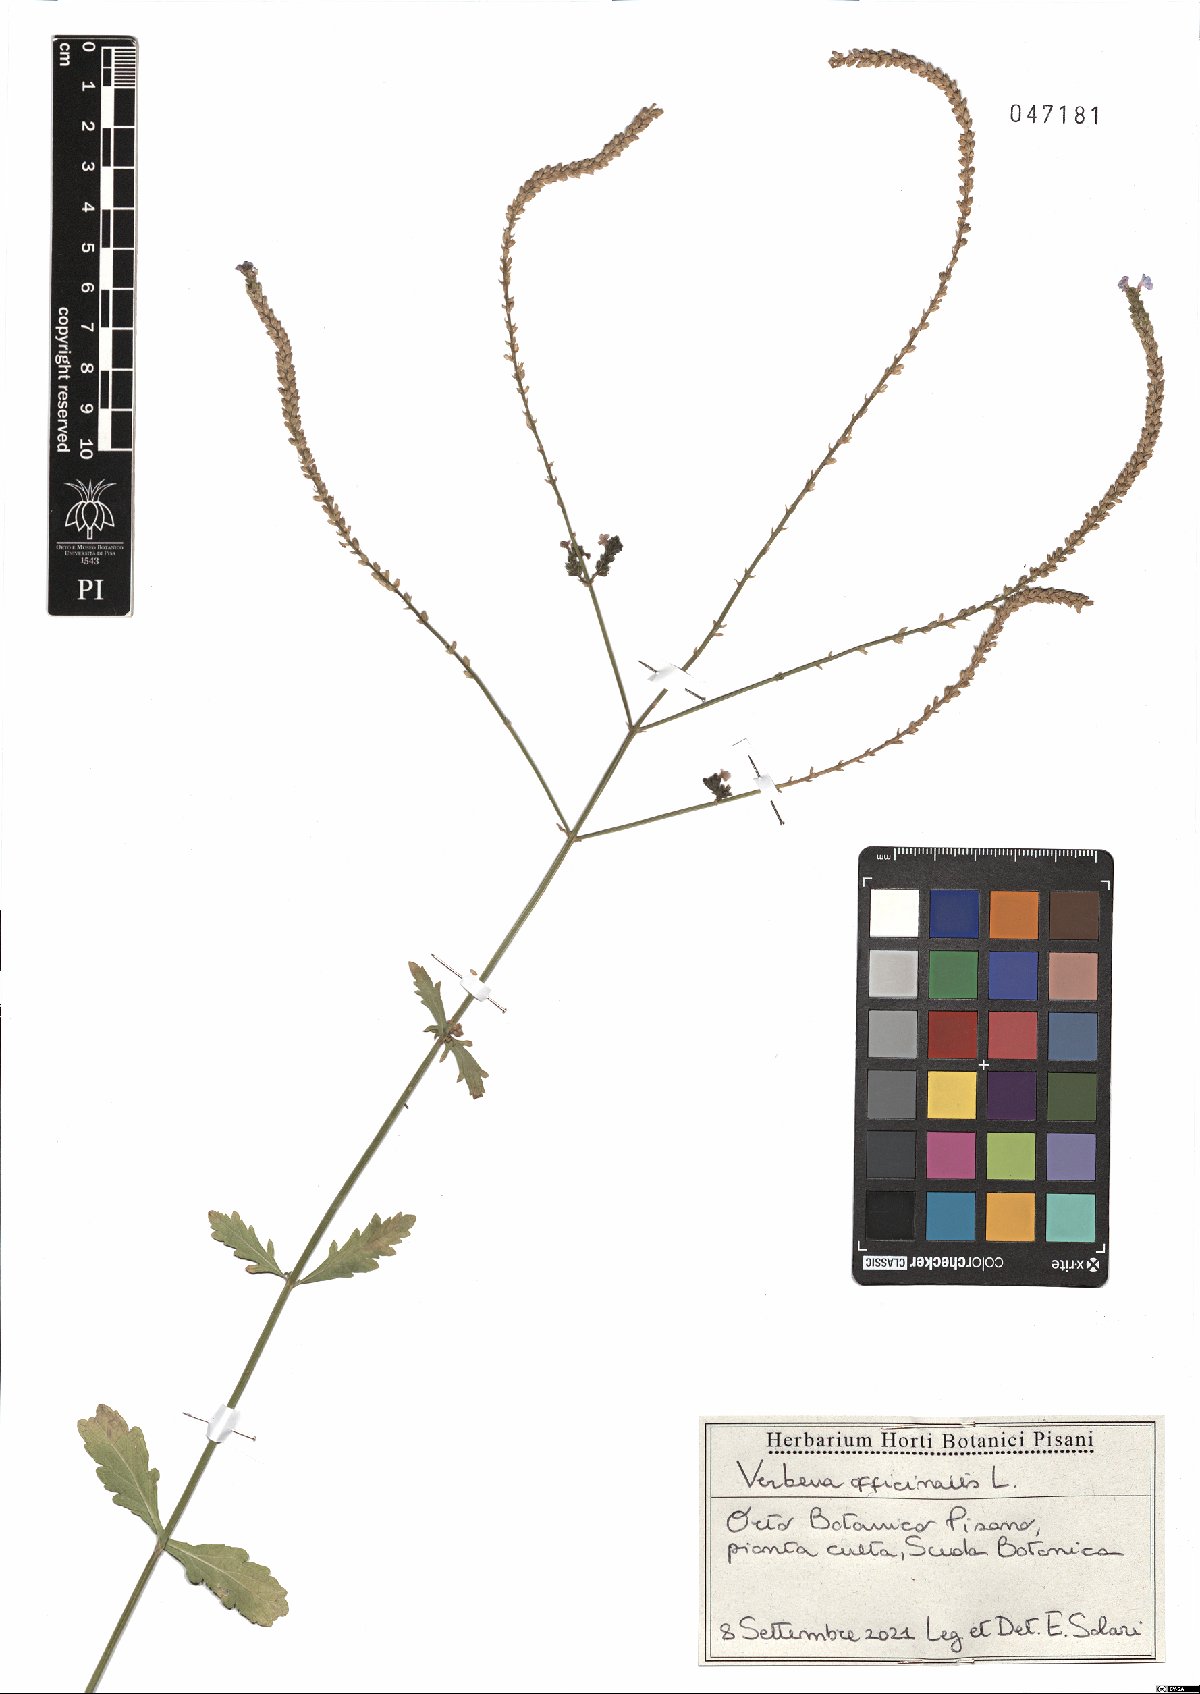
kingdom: Plantae
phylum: Tracheophyta
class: Magnoliopsida
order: Lamiales
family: Verbenaceae
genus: Verbena
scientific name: Verbena officinalis
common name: Vervain
